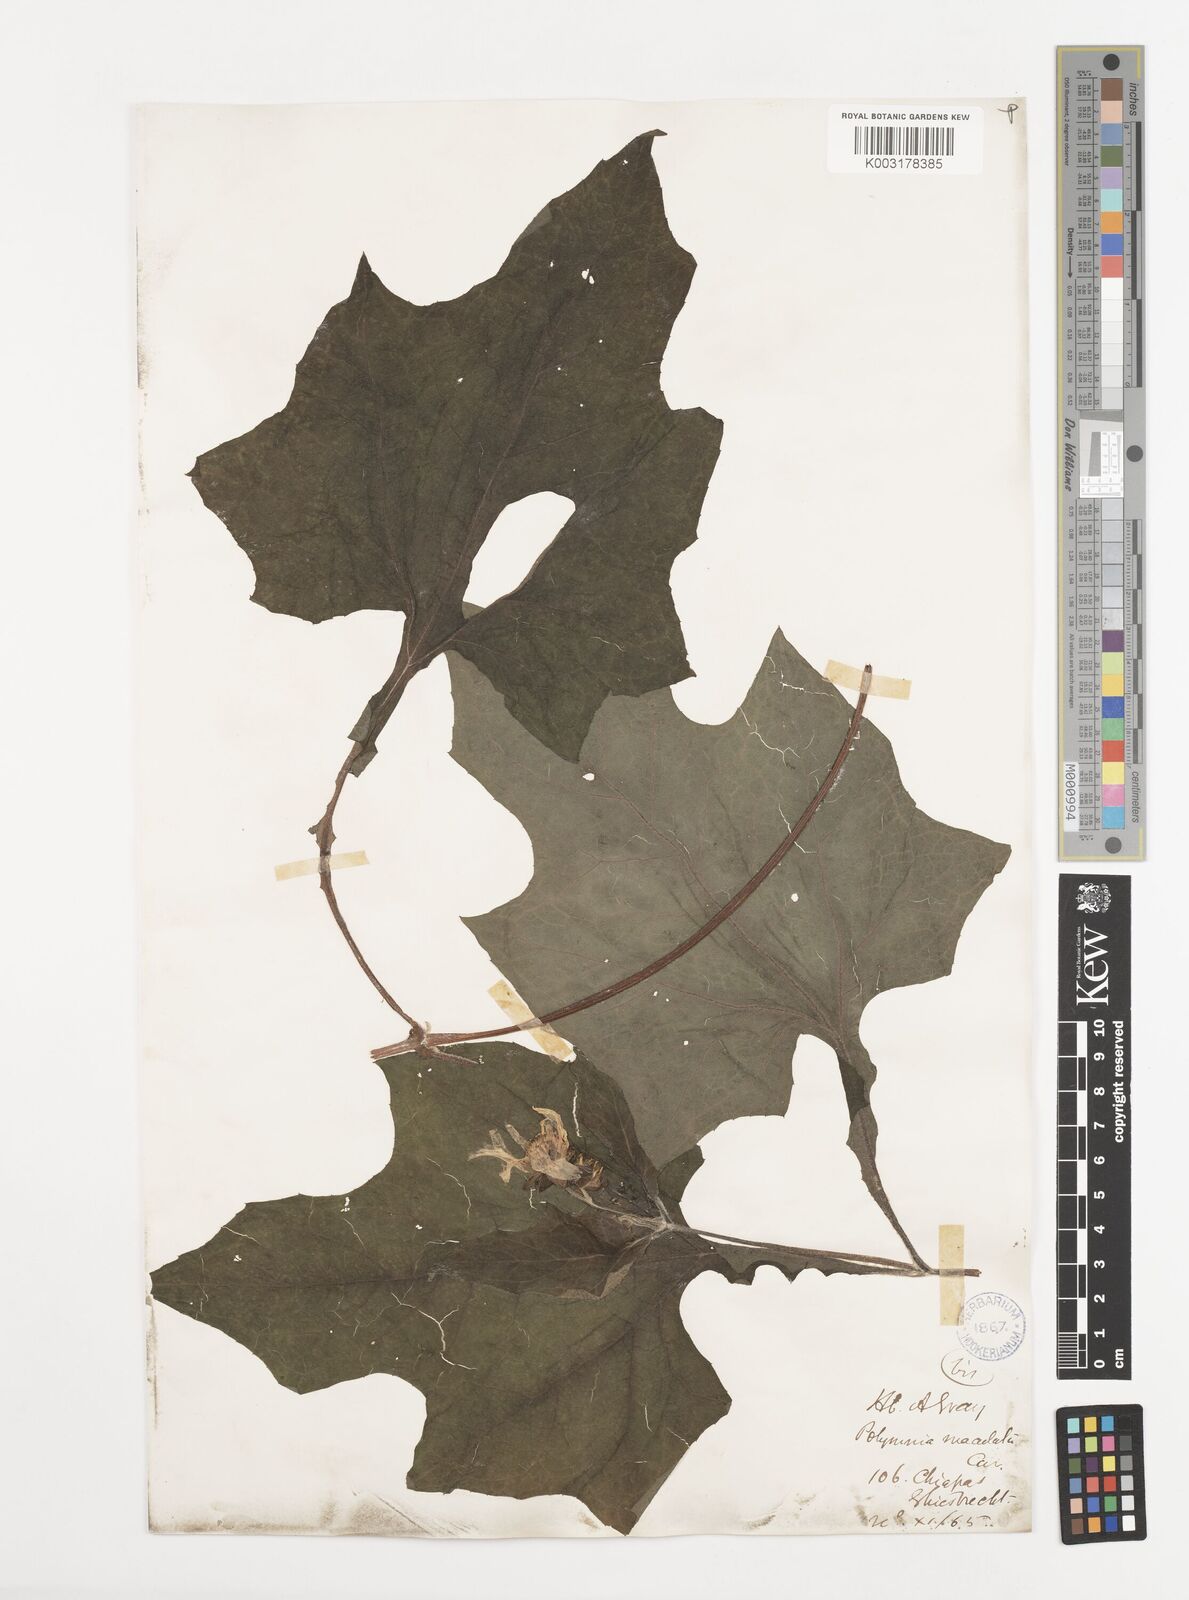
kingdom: Plantae
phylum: Tracheophyta
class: Magnoliopsida
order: Asterales
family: Asteraceae
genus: Smallanthus
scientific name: Smallanthus maculatus
